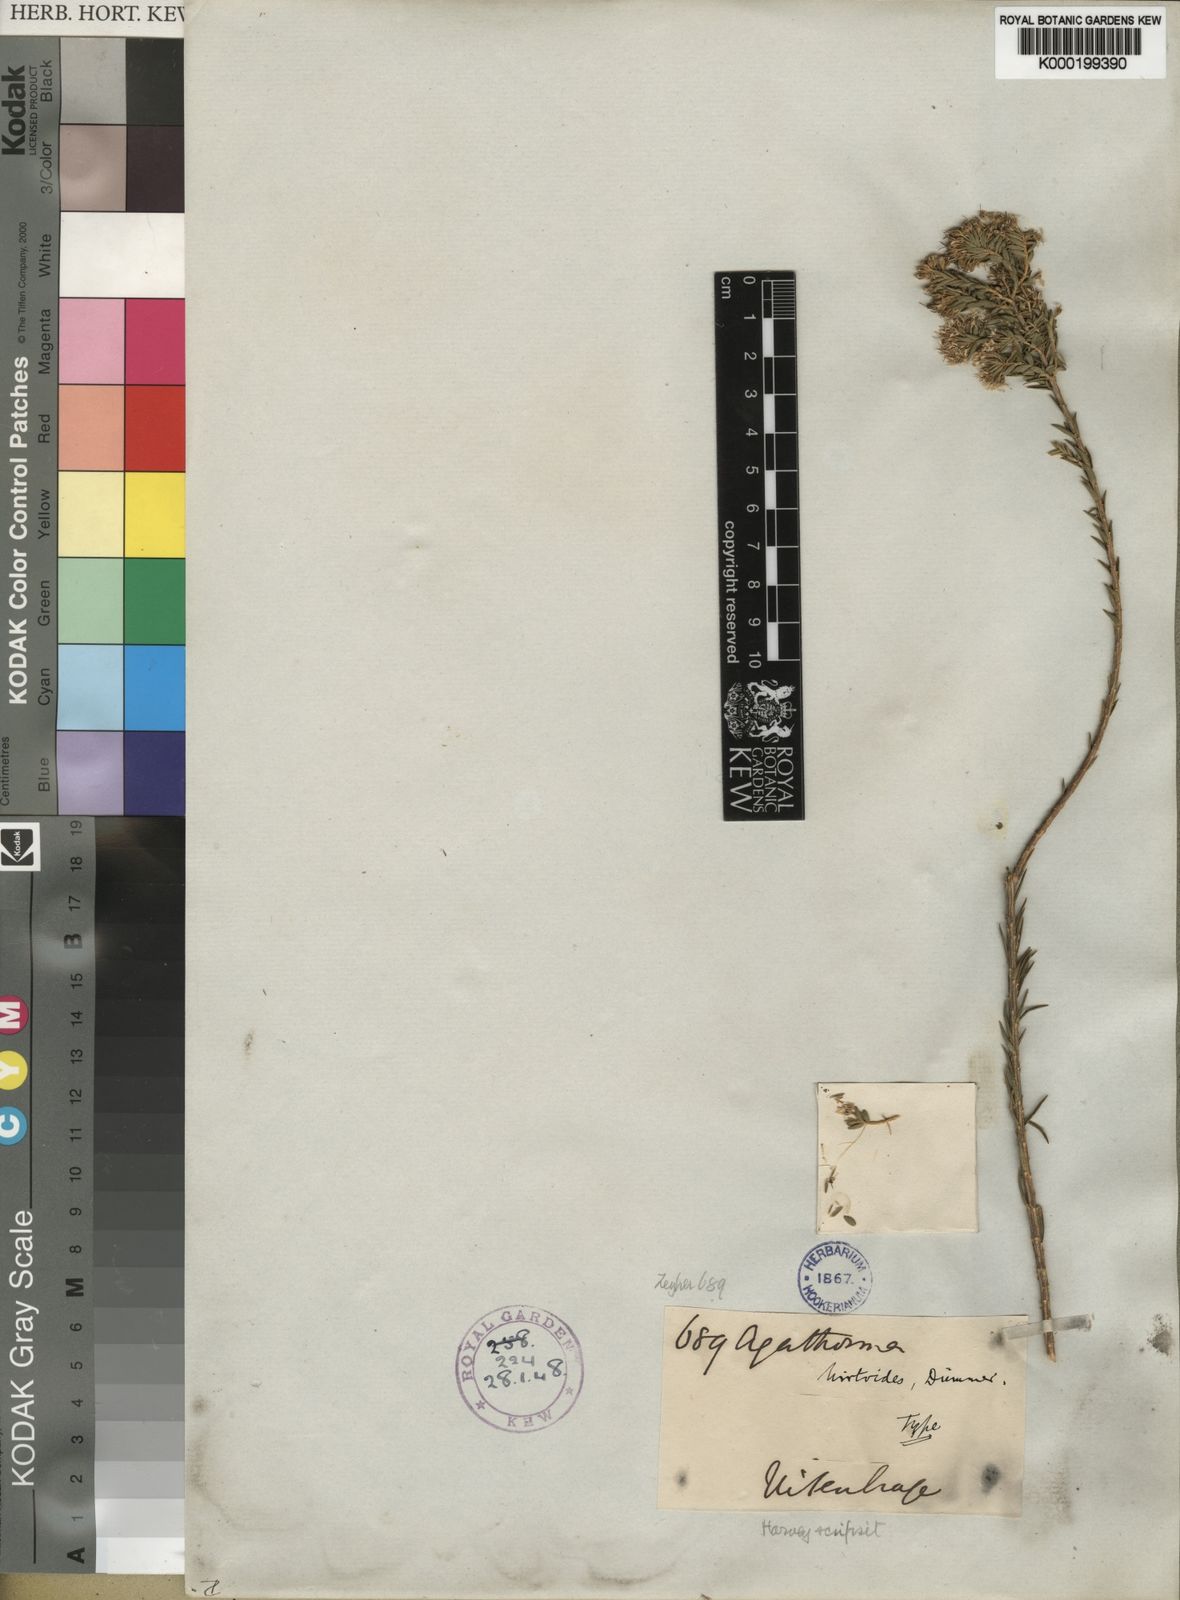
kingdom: Plantae
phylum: Tracheophyta
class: Magnoliopsida
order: Sapindales
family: Rutaceae
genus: Agathosma
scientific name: Agathosma adenocaulis
